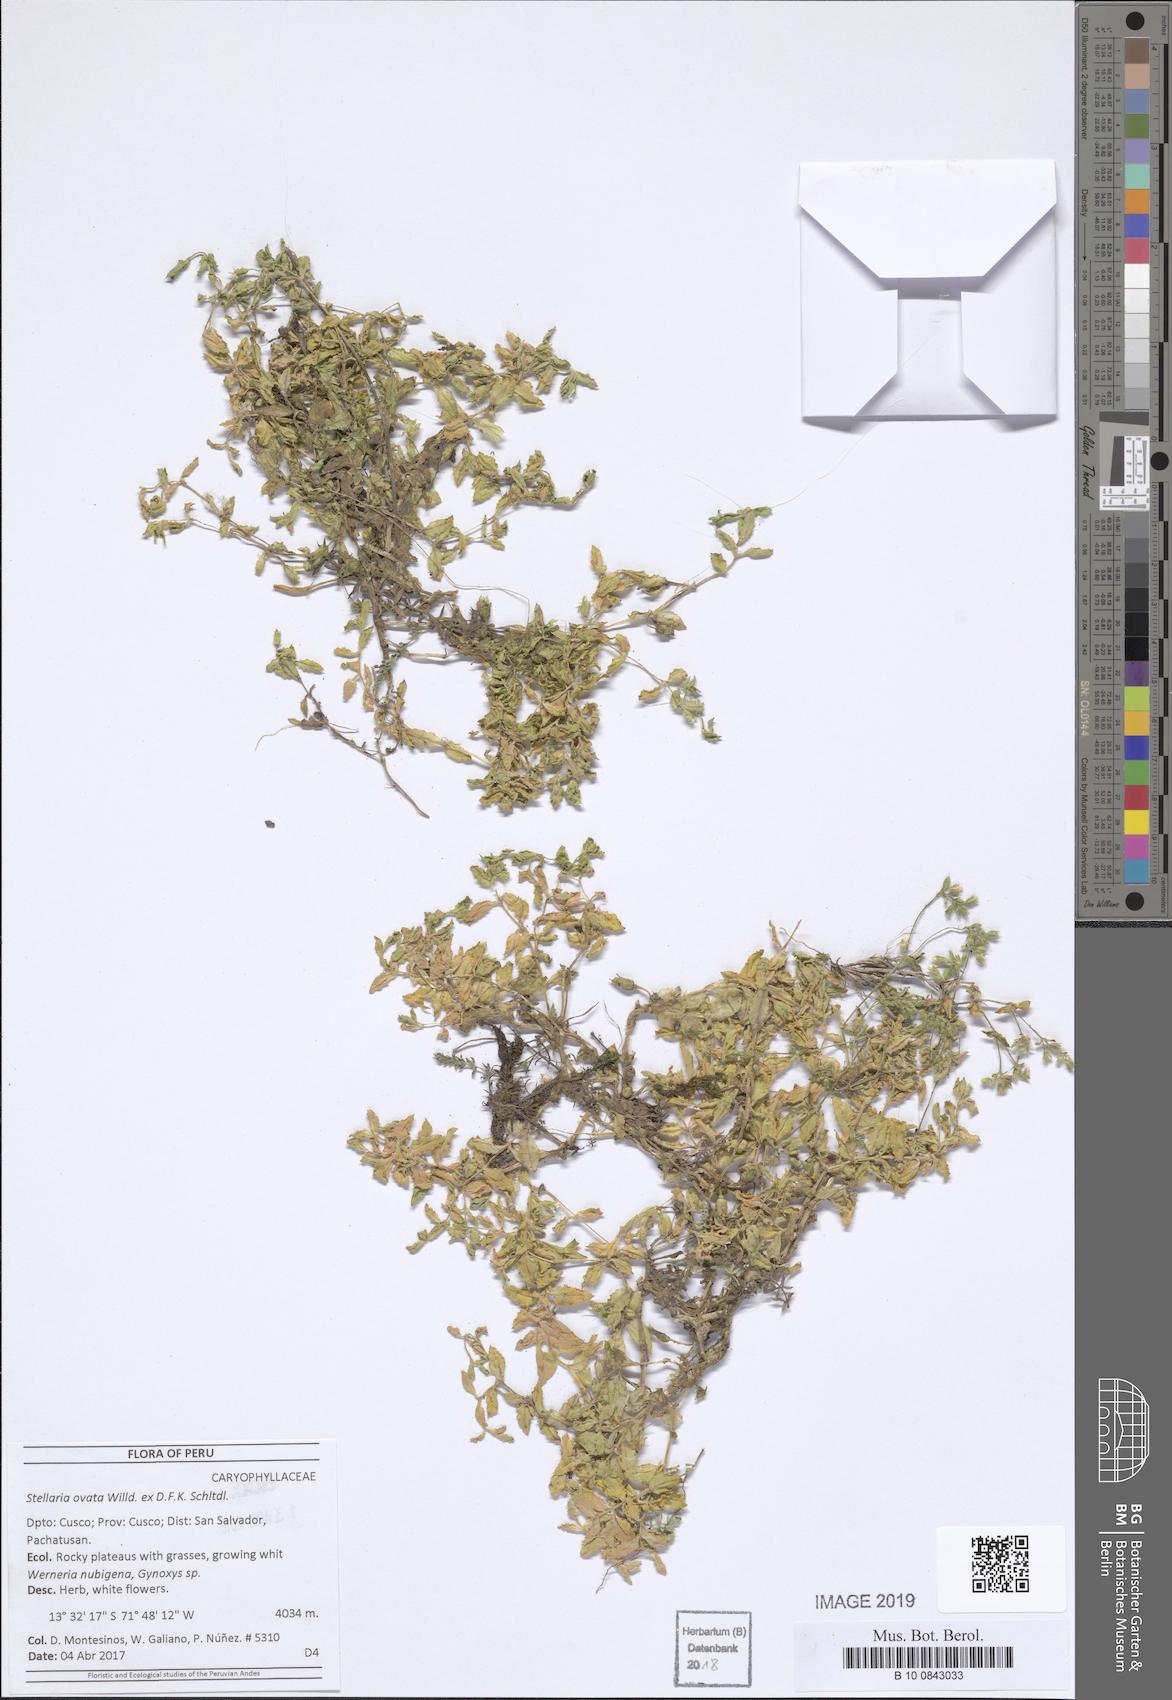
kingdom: Plantae
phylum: Tracheophyta
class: Magnoliopsida
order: Caryophyllales
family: Caryophyllaceae
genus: Stellaria
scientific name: Stellaria ovata
